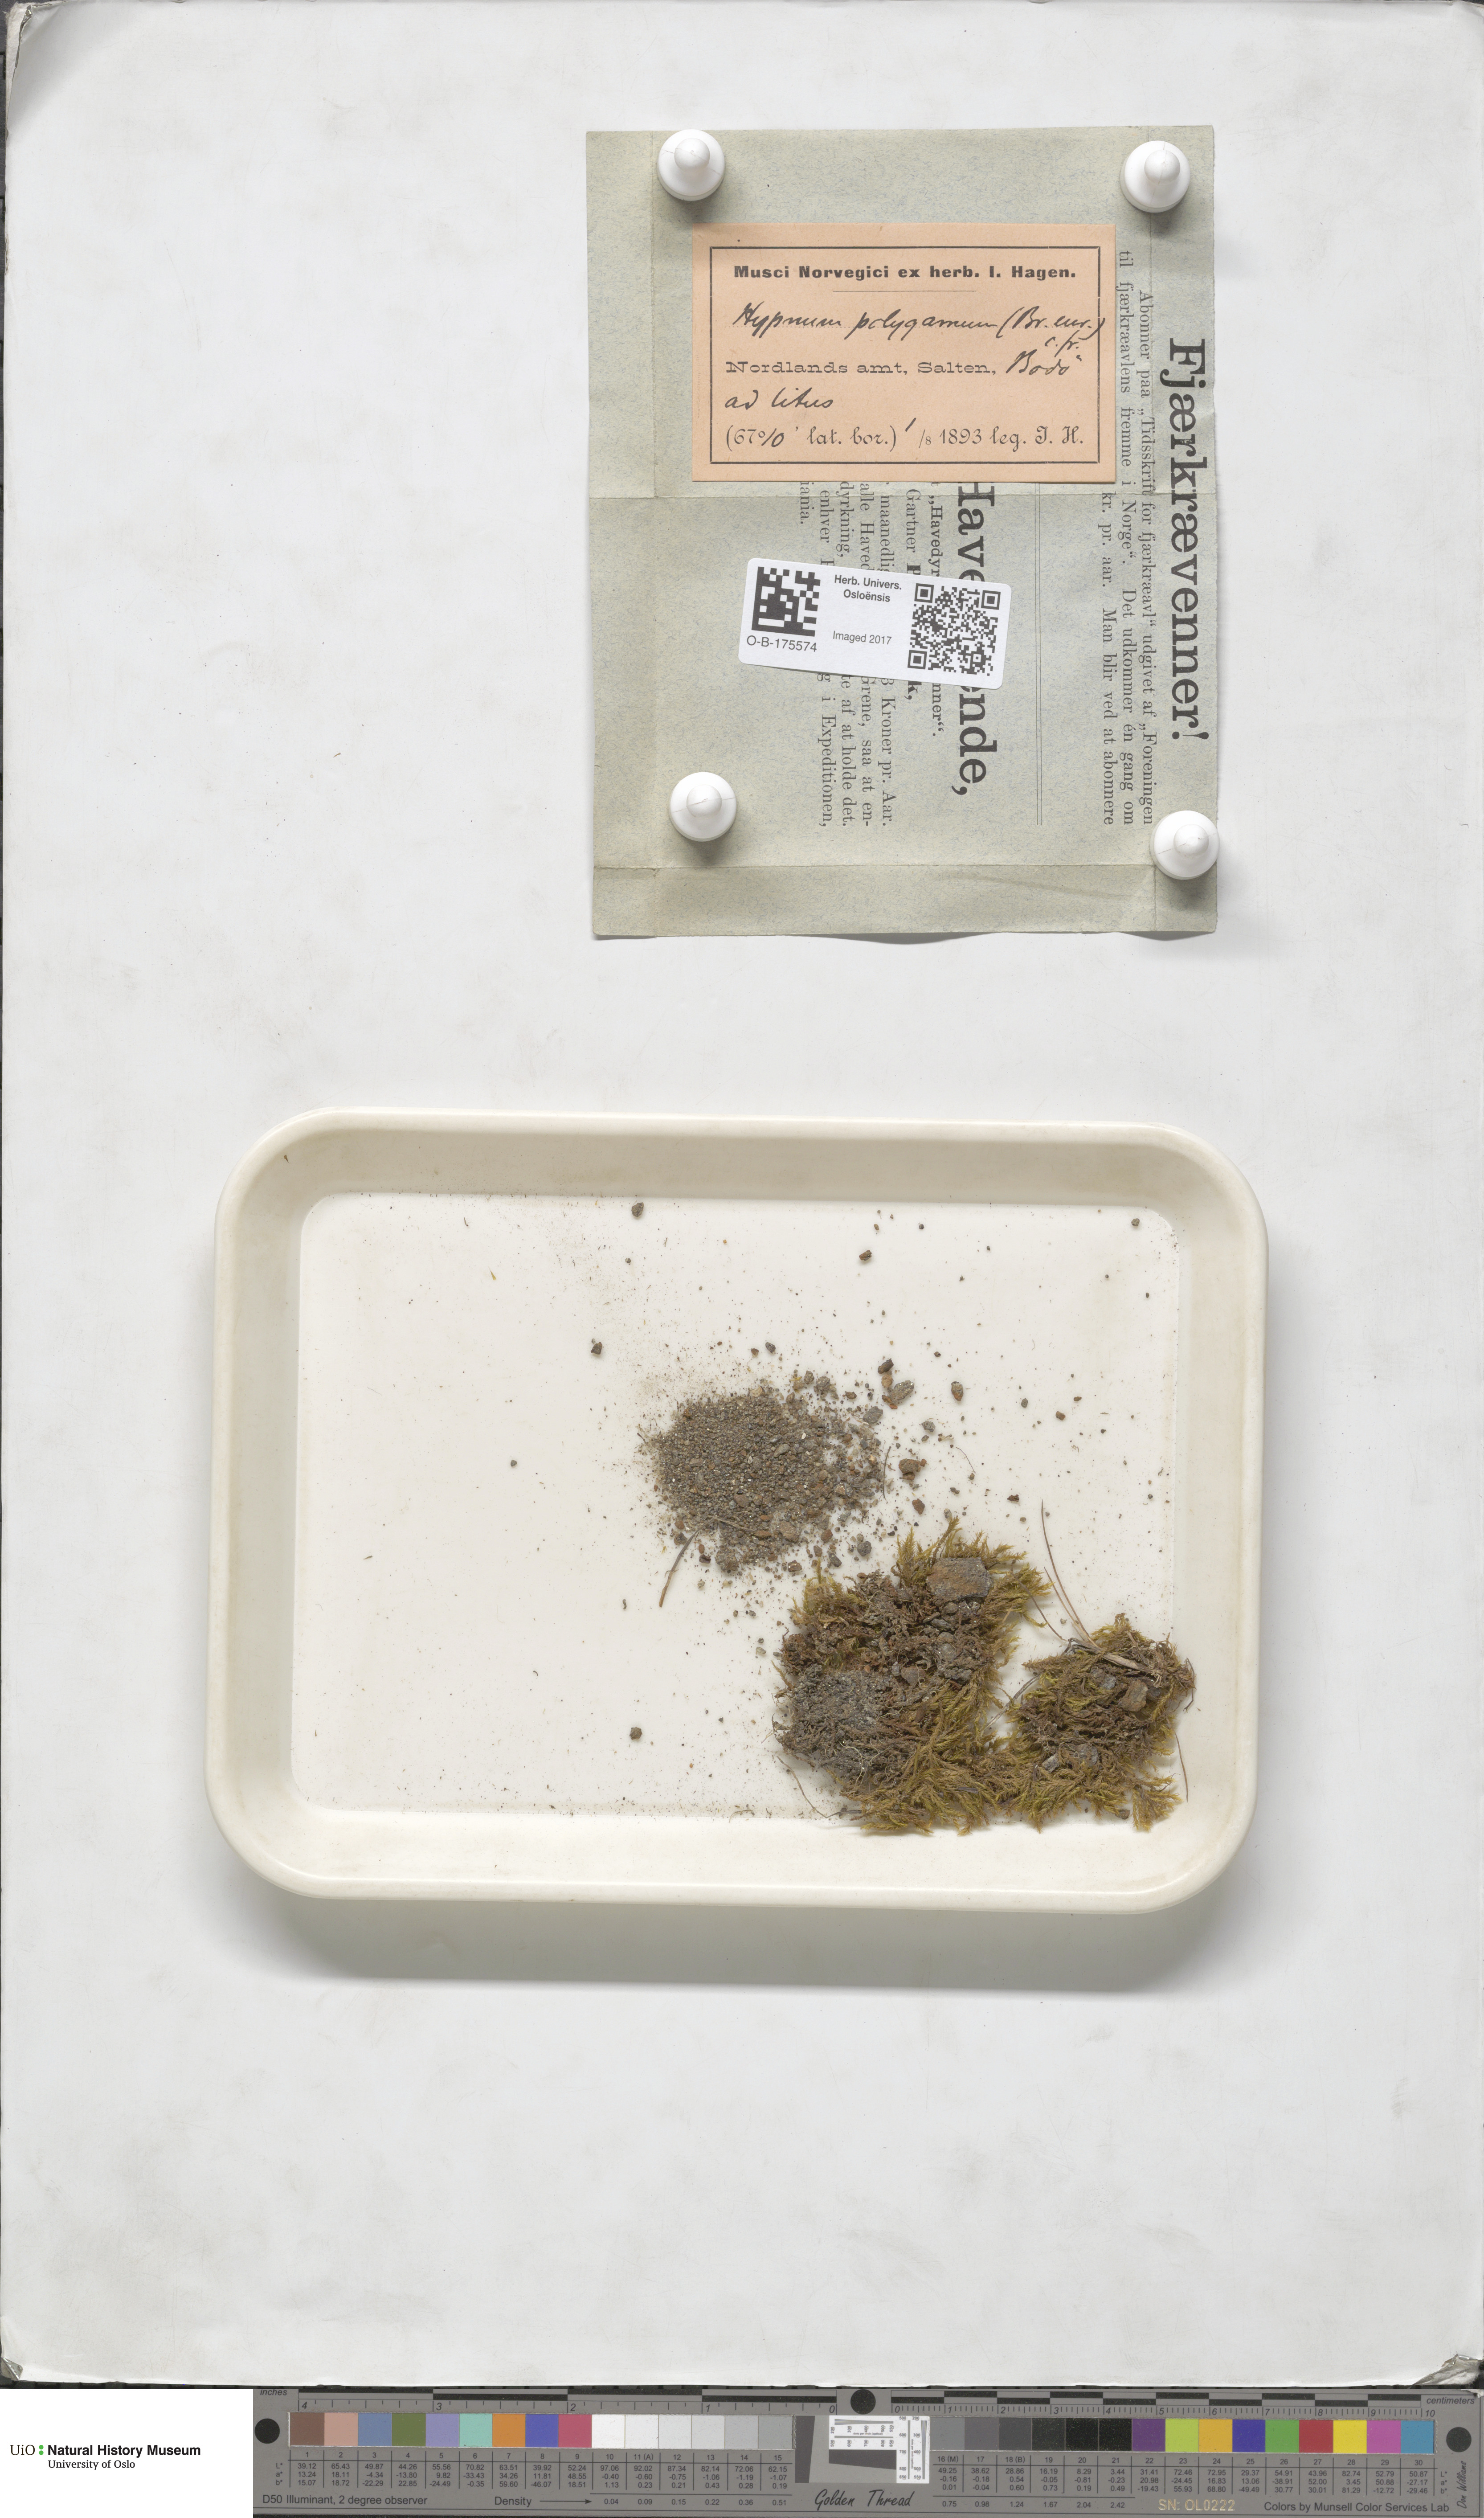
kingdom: Plantae
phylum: Bryophyta
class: Bryopsida
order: Hypnales
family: Amblystegiaceae
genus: Drepanocladus
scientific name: Drepanocladus polygamus
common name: Polygamous hook moss
